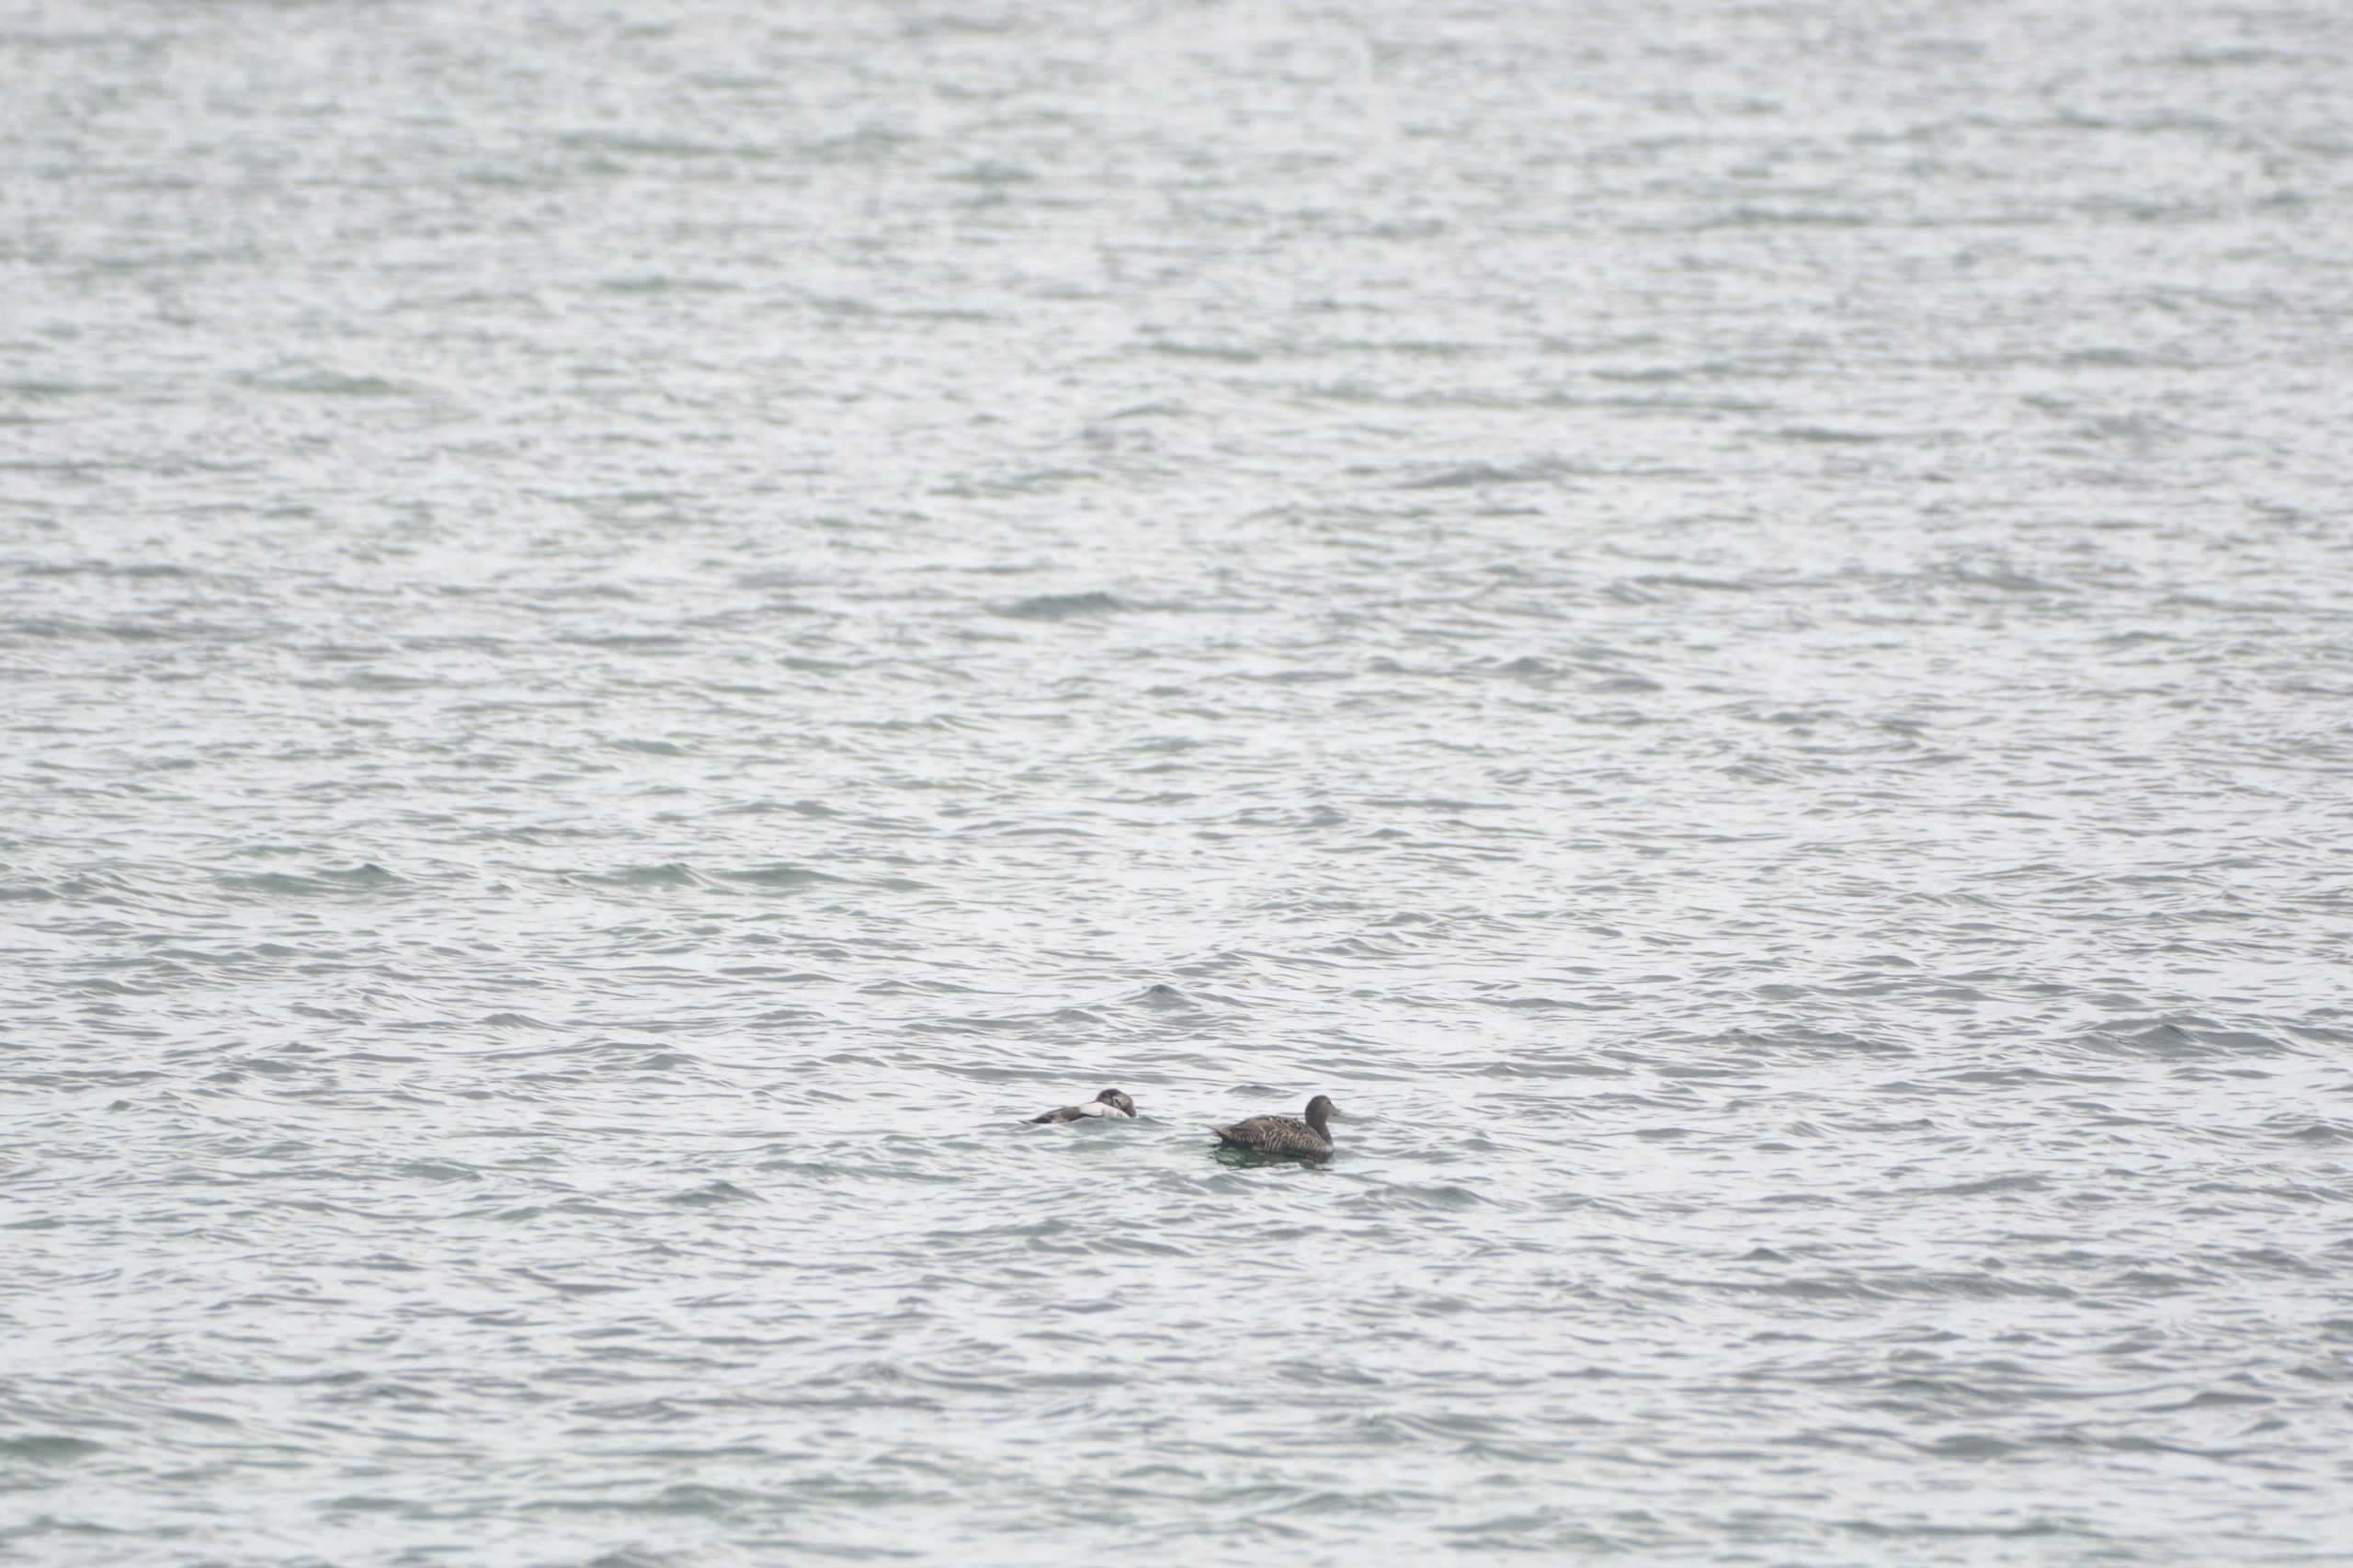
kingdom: Animalia
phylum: Chordata
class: Aves
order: Anseriformes
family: Anatidae
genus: Somateria
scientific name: Somateria mollissima
